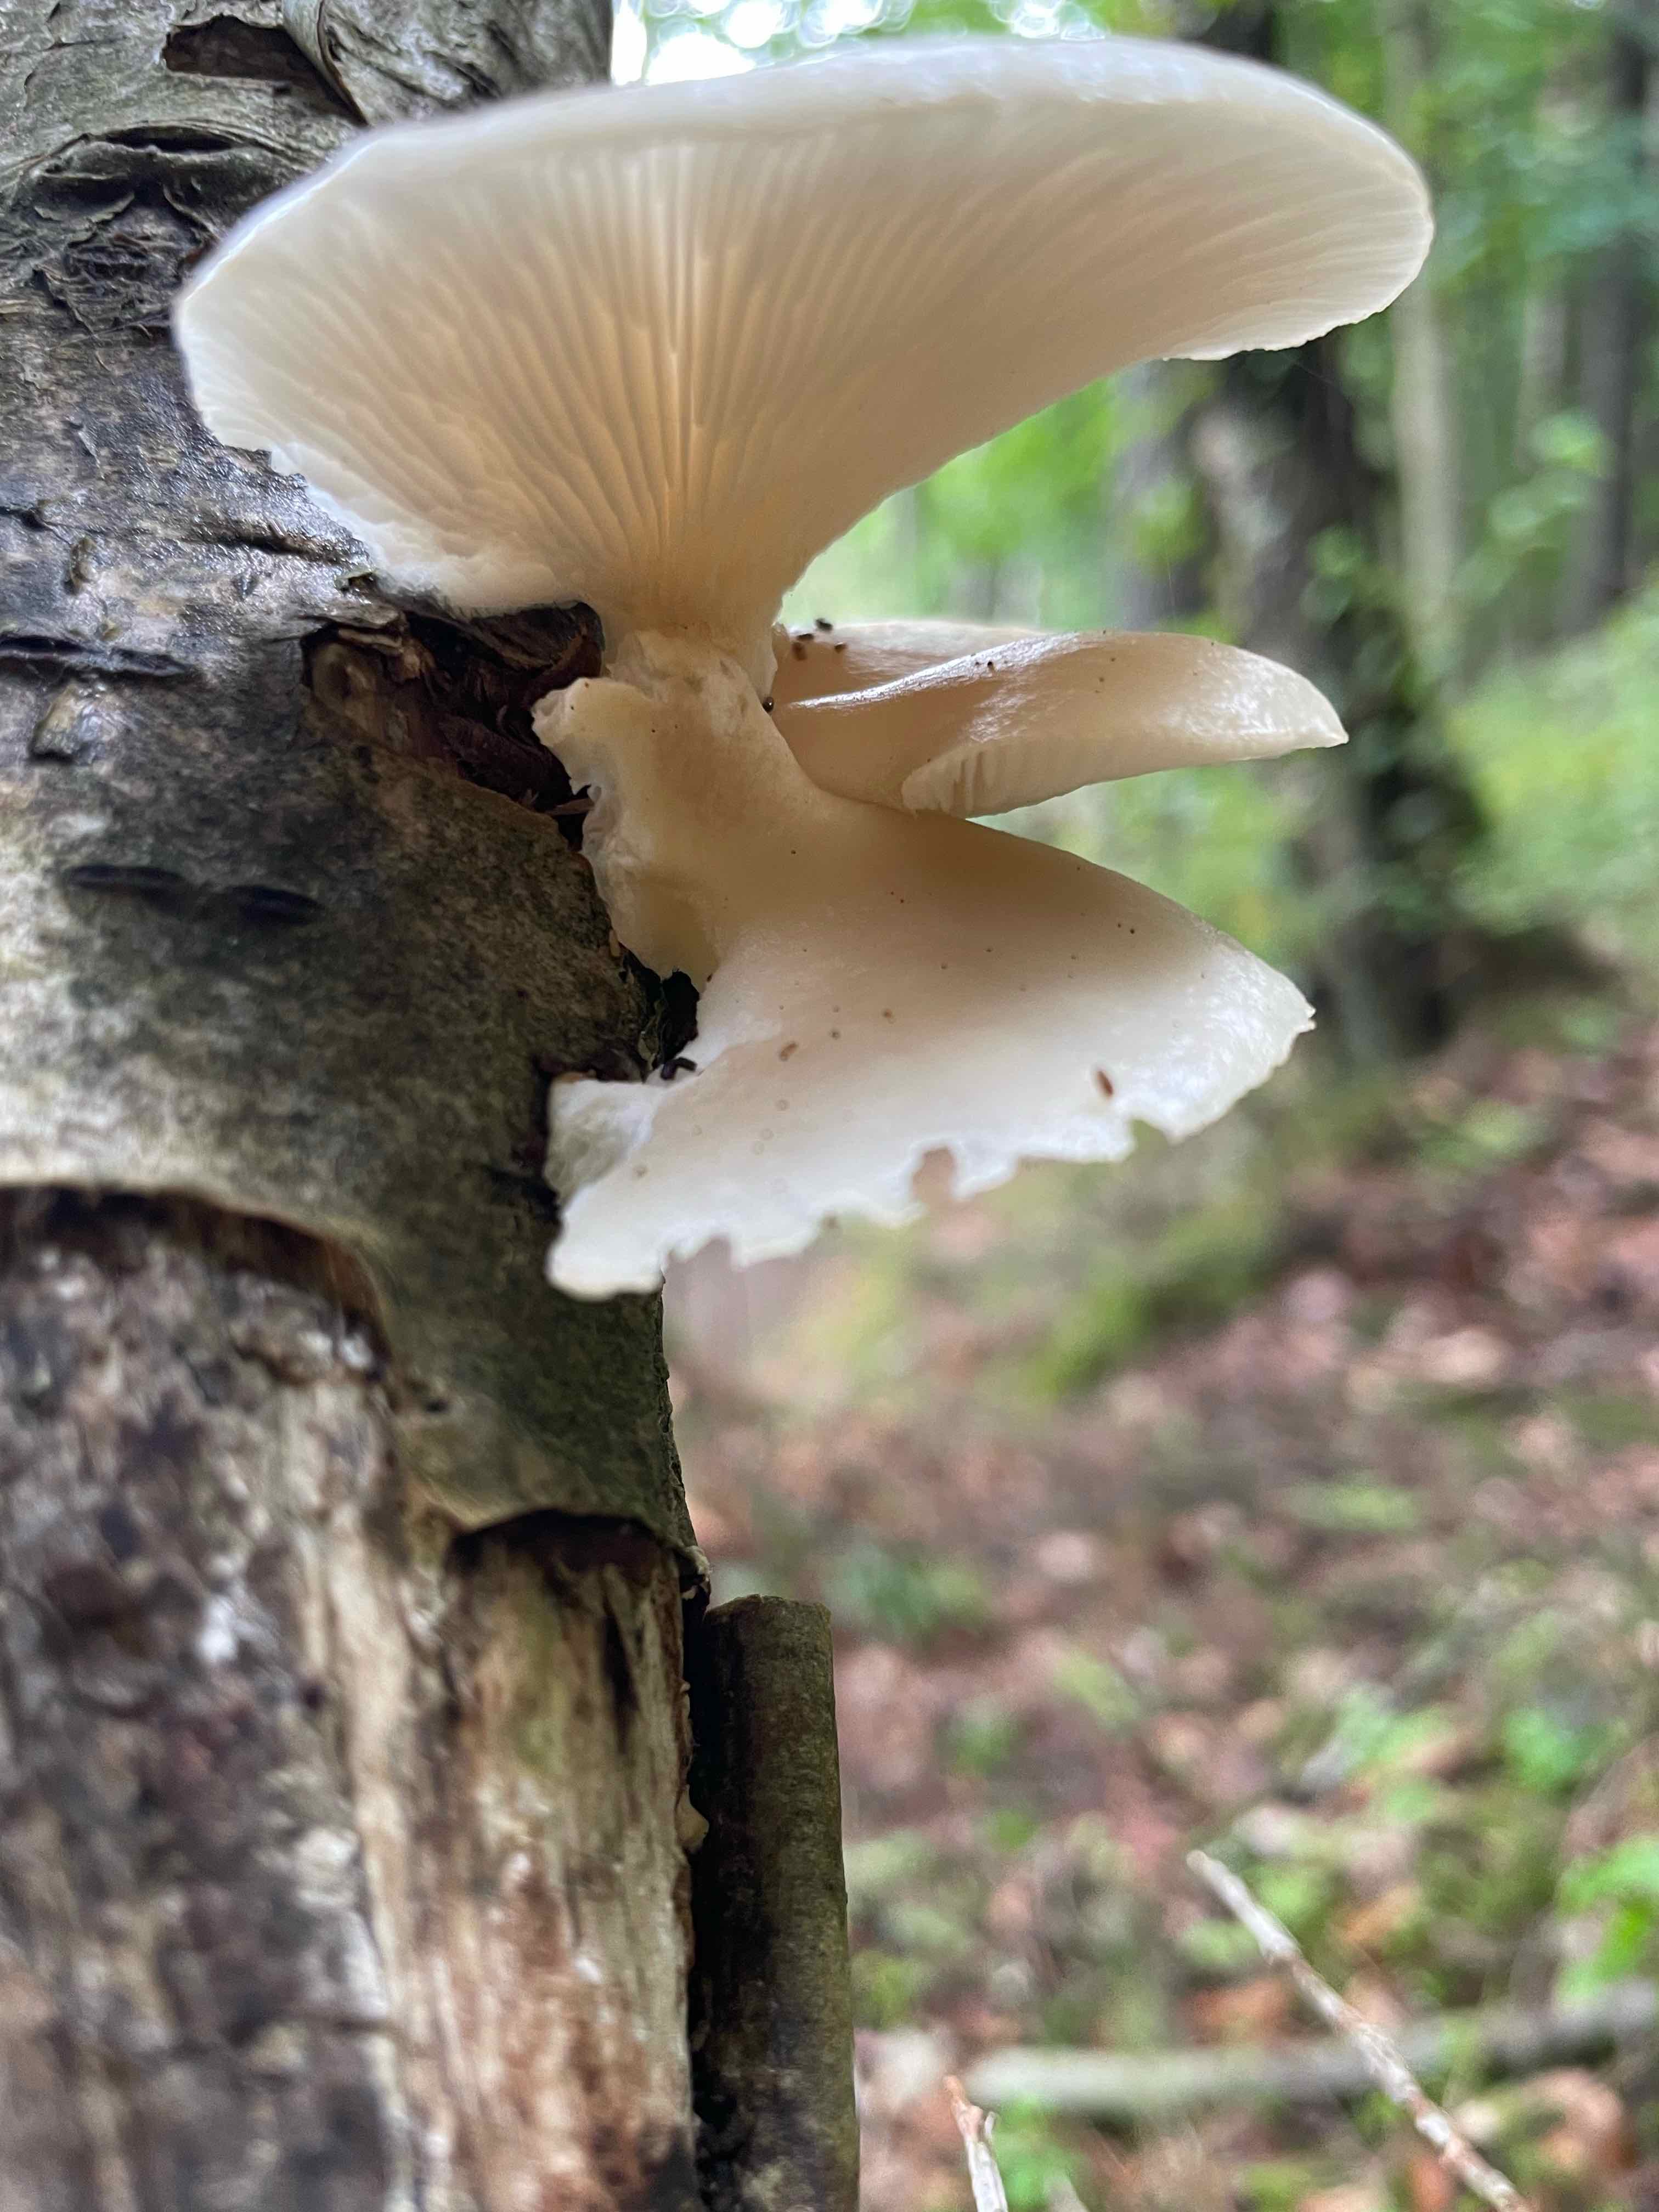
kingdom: Fungi
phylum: Basidiomycota
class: Agaricomycetes
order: Agaricales
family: Pleurotaceae
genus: Pleurotus
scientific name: Pleurotus pulmonarius
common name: sommer-østershat
